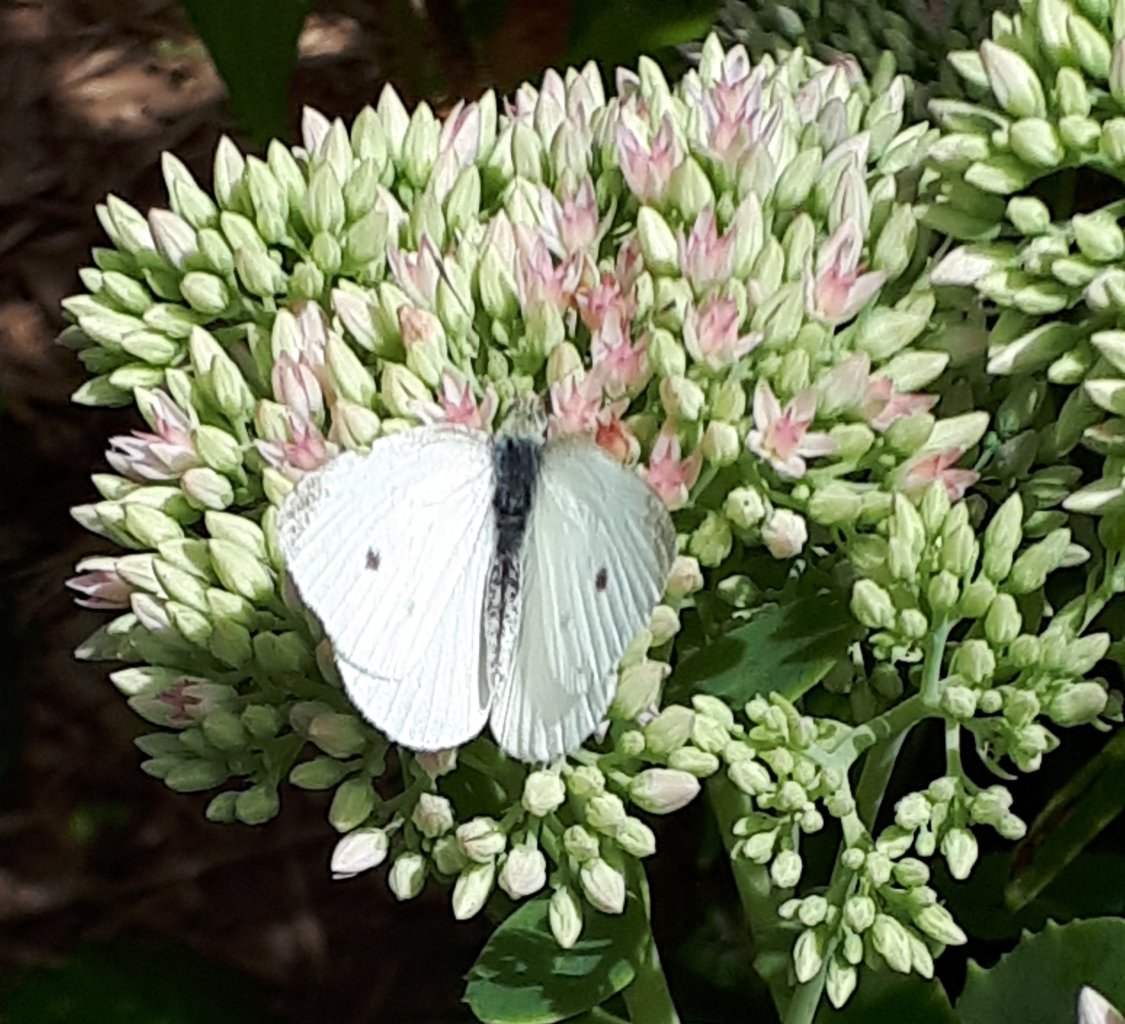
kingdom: Animalia
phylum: Arthropoda
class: Insecta
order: Lepidoptera
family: Pieridae
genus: Pieris
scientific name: Pieris rapae
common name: Cabbage White
